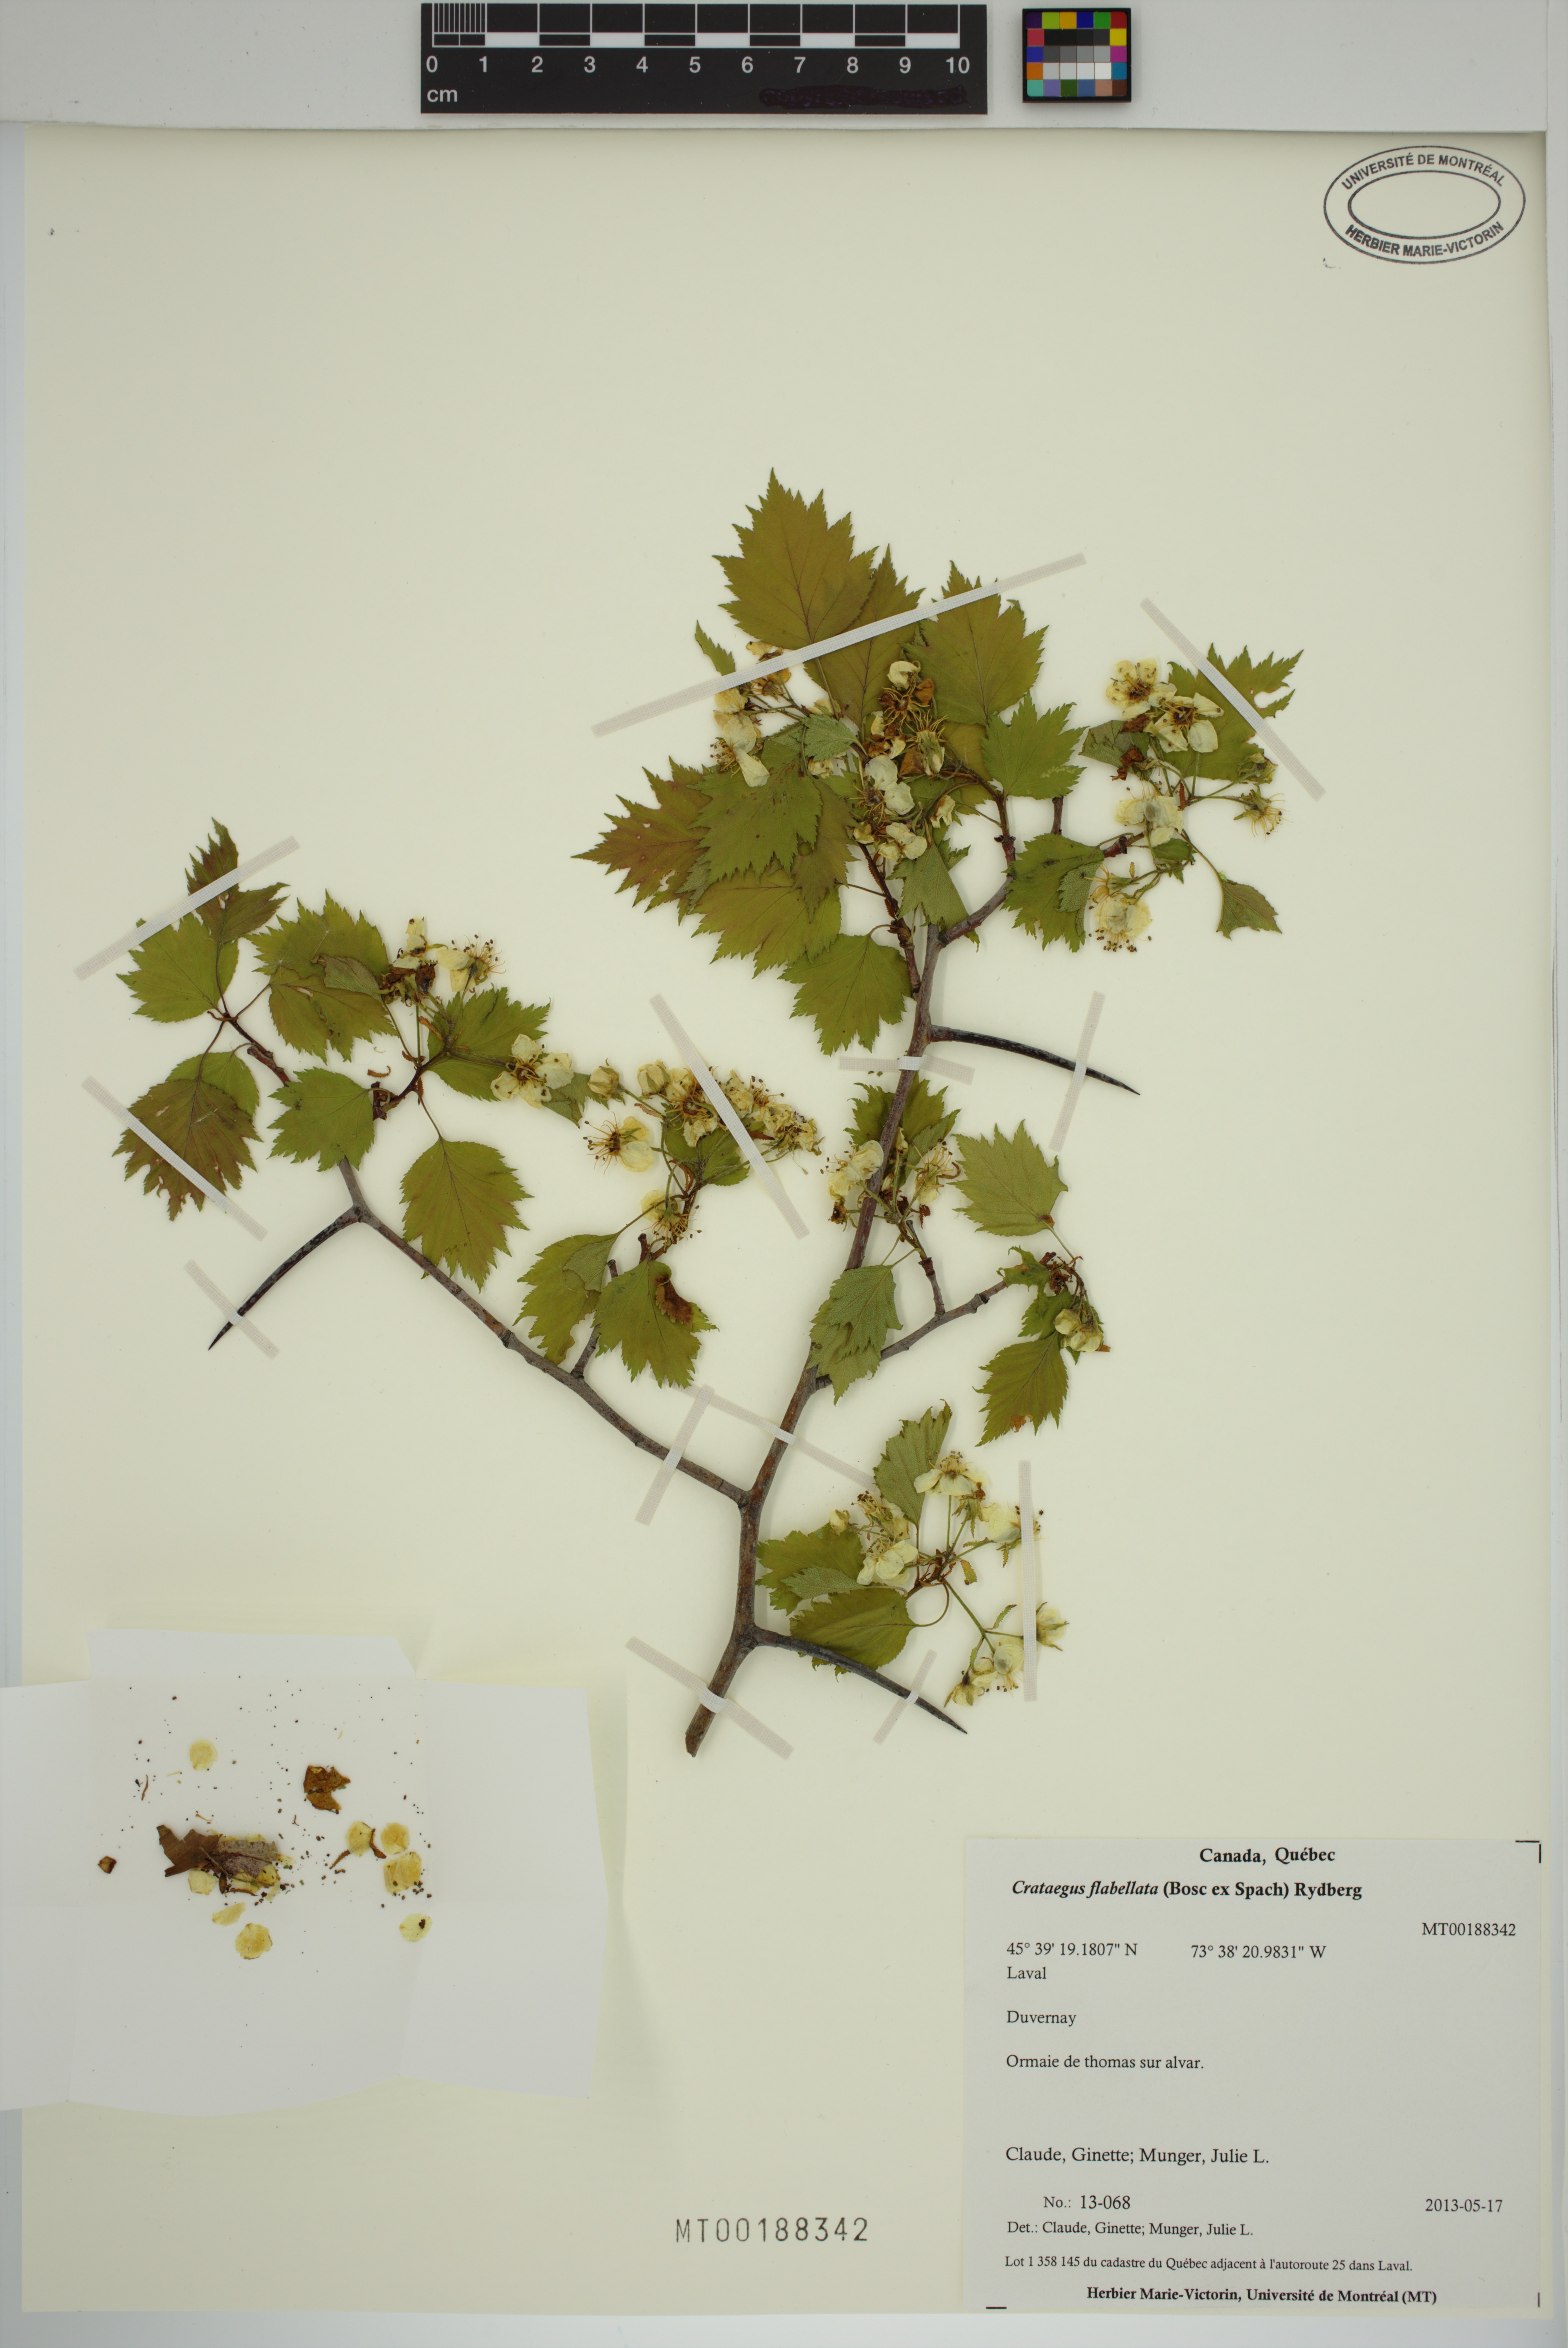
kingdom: Plantae
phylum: Tracheophyta
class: Magnoliopsida
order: Rosales
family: Rosaceae
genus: Crataegus
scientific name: Crataegus schuettei
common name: Schuette's hawthorn
